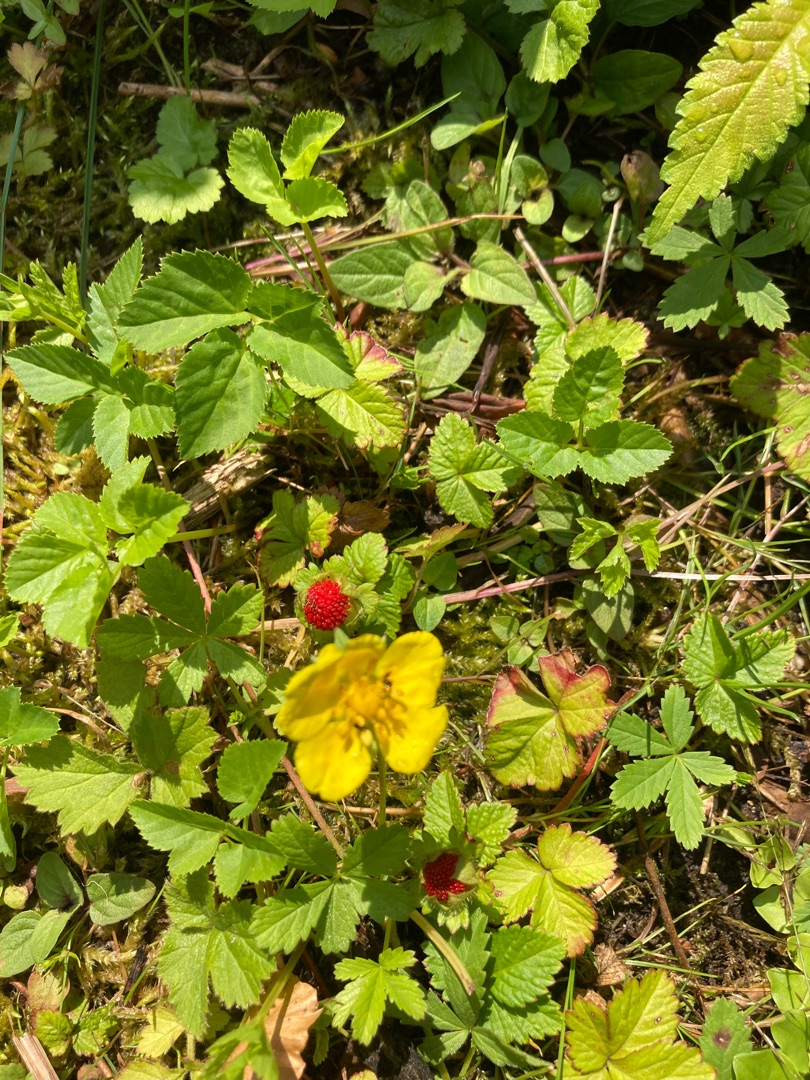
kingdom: Plantae
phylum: Tracheophyta
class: Magnoliopsida
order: Rosales
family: Rosaceae
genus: Potentilla
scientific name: Potentilla indica
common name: Indisk jordbær
